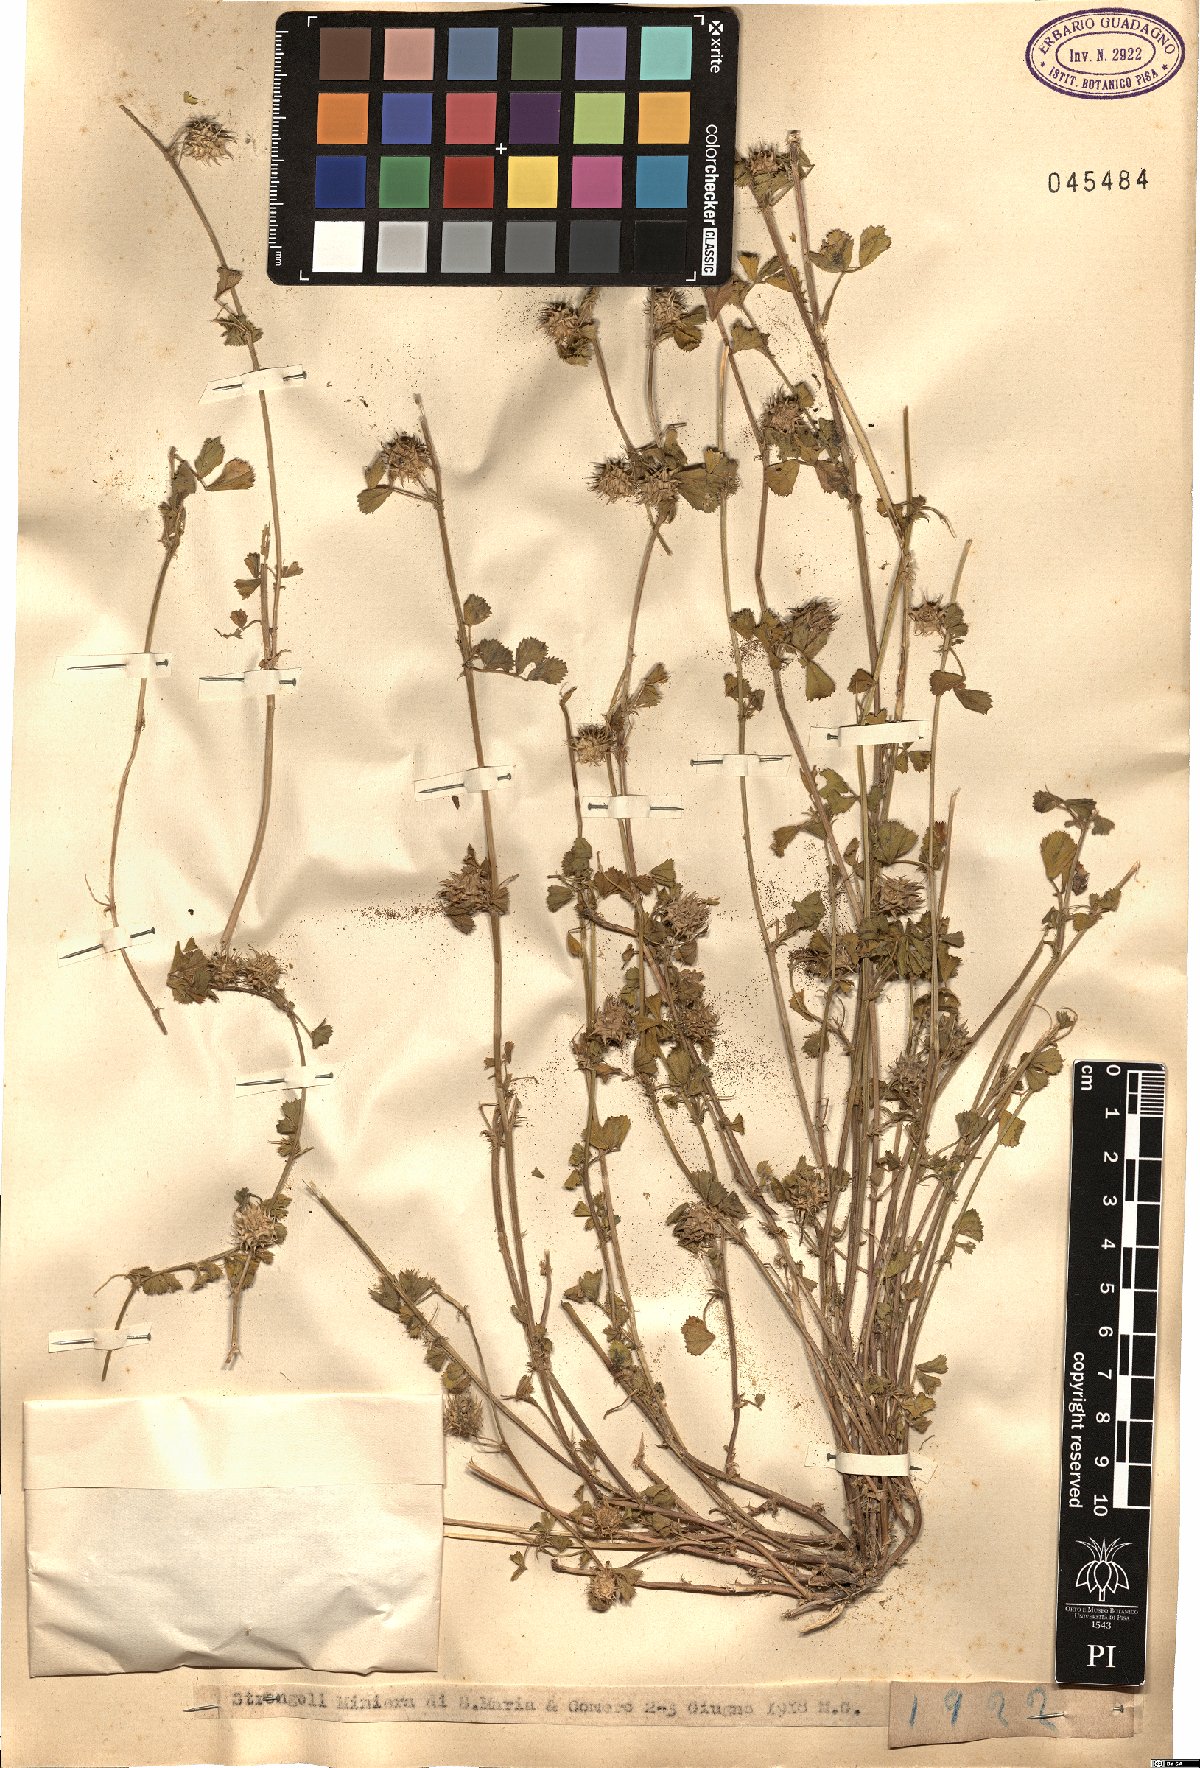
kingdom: Plantae
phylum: Tracheophyta
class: Magnoliopsida
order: Fabales
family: Fabaceae
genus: Medicago
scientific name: Medicago
